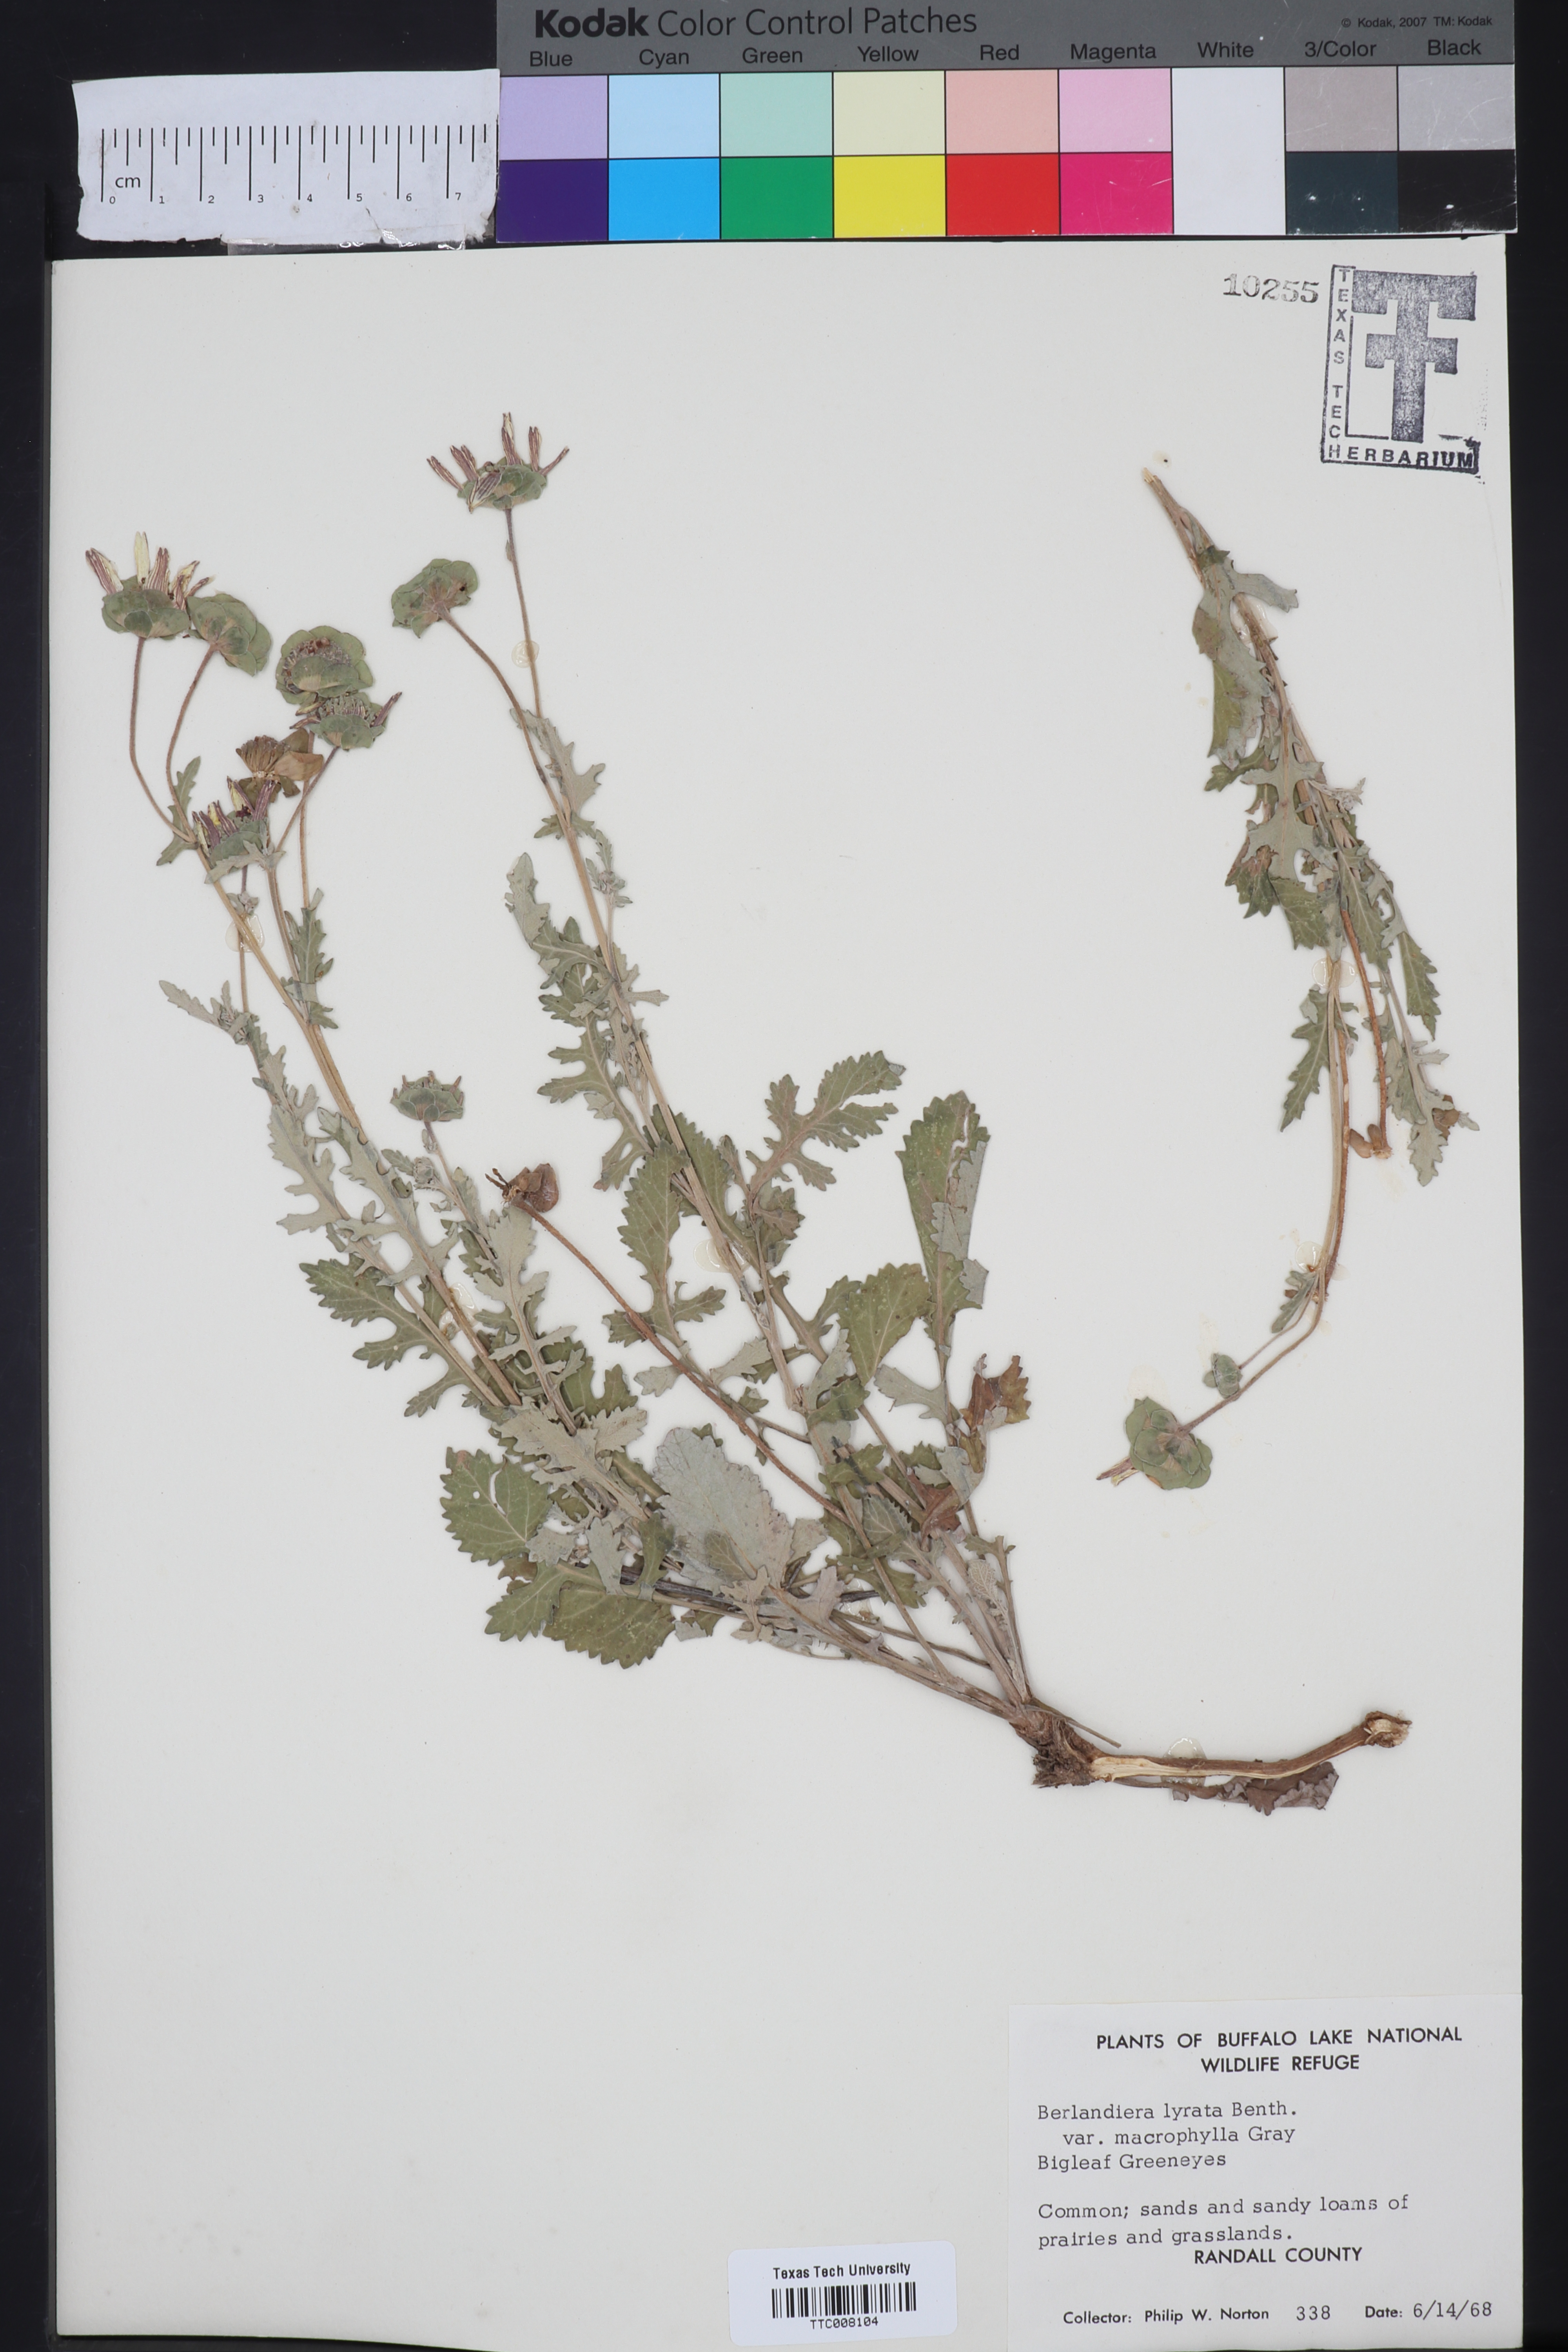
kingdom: Plantae
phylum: Tracheophyta
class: Magnoliopsida
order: Asterales
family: Asteraceae
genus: Berlandiera
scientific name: Berlandiera macrophylla
